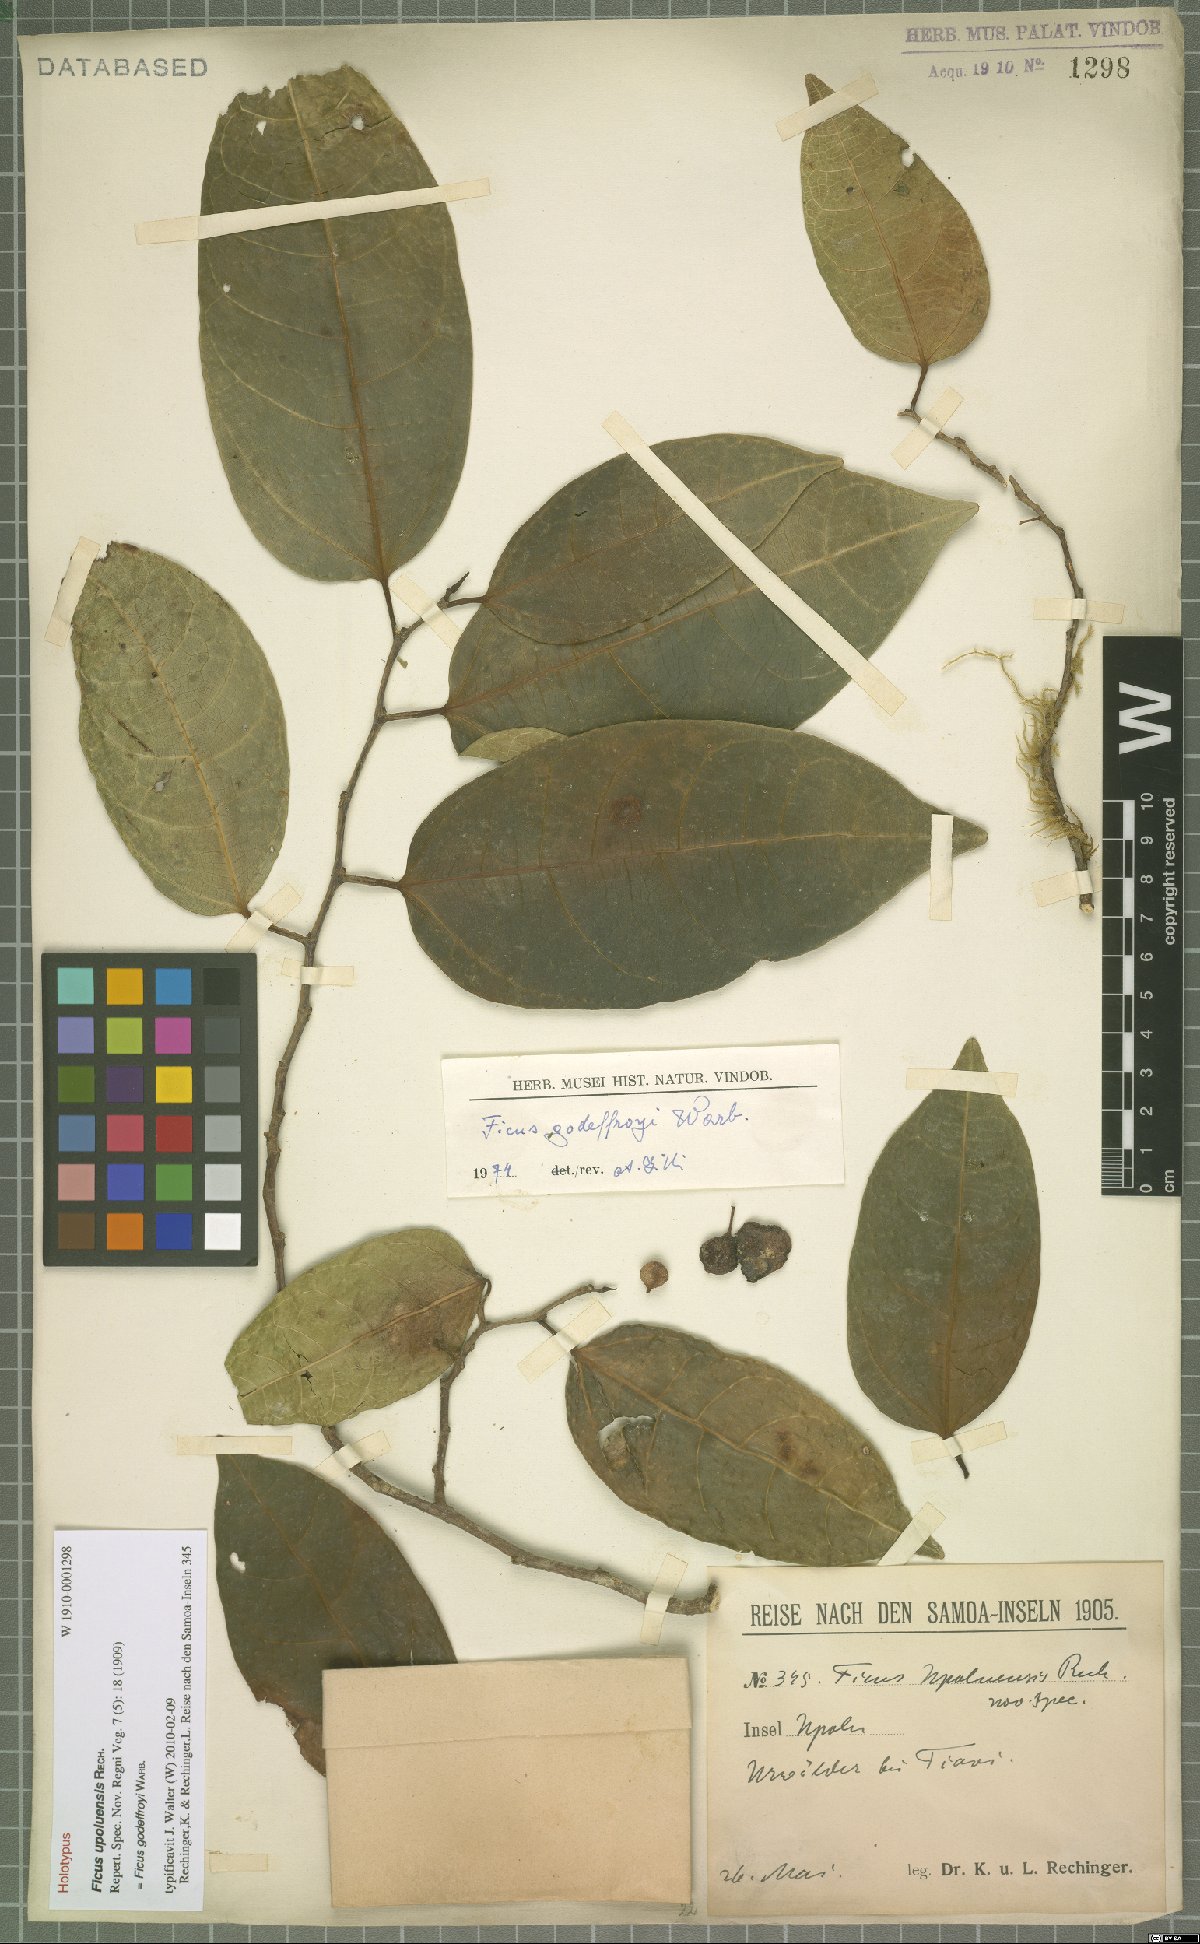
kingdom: Plantae
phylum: Tracheophyta
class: Magnoliopsida
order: Rosales
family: Moraceae
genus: Ficus
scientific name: Ficus godeffroyi
